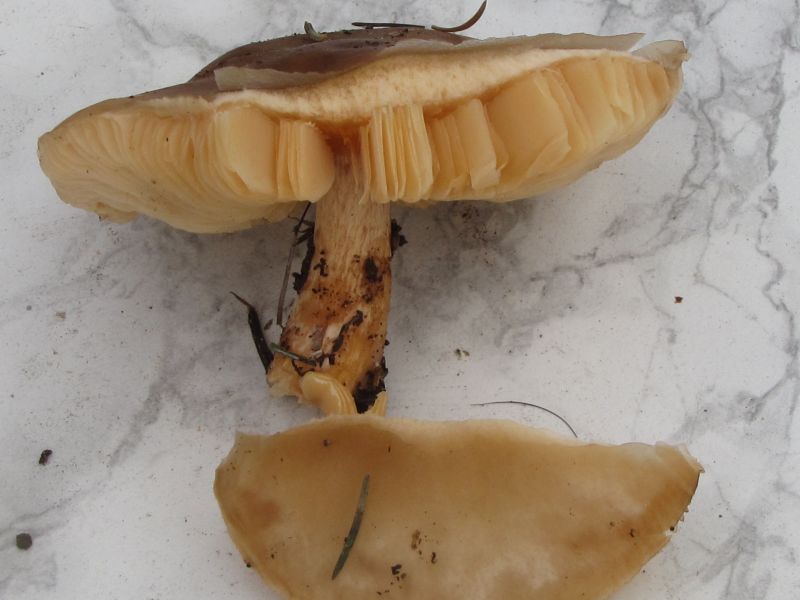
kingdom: Fungi
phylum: Basidiomycota
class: Agaricomycetes
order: Agaricales
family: Tricholomataceae
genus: Melanoleuca
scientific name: Melanoleuca cognata
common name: gyldengrå munkehat
